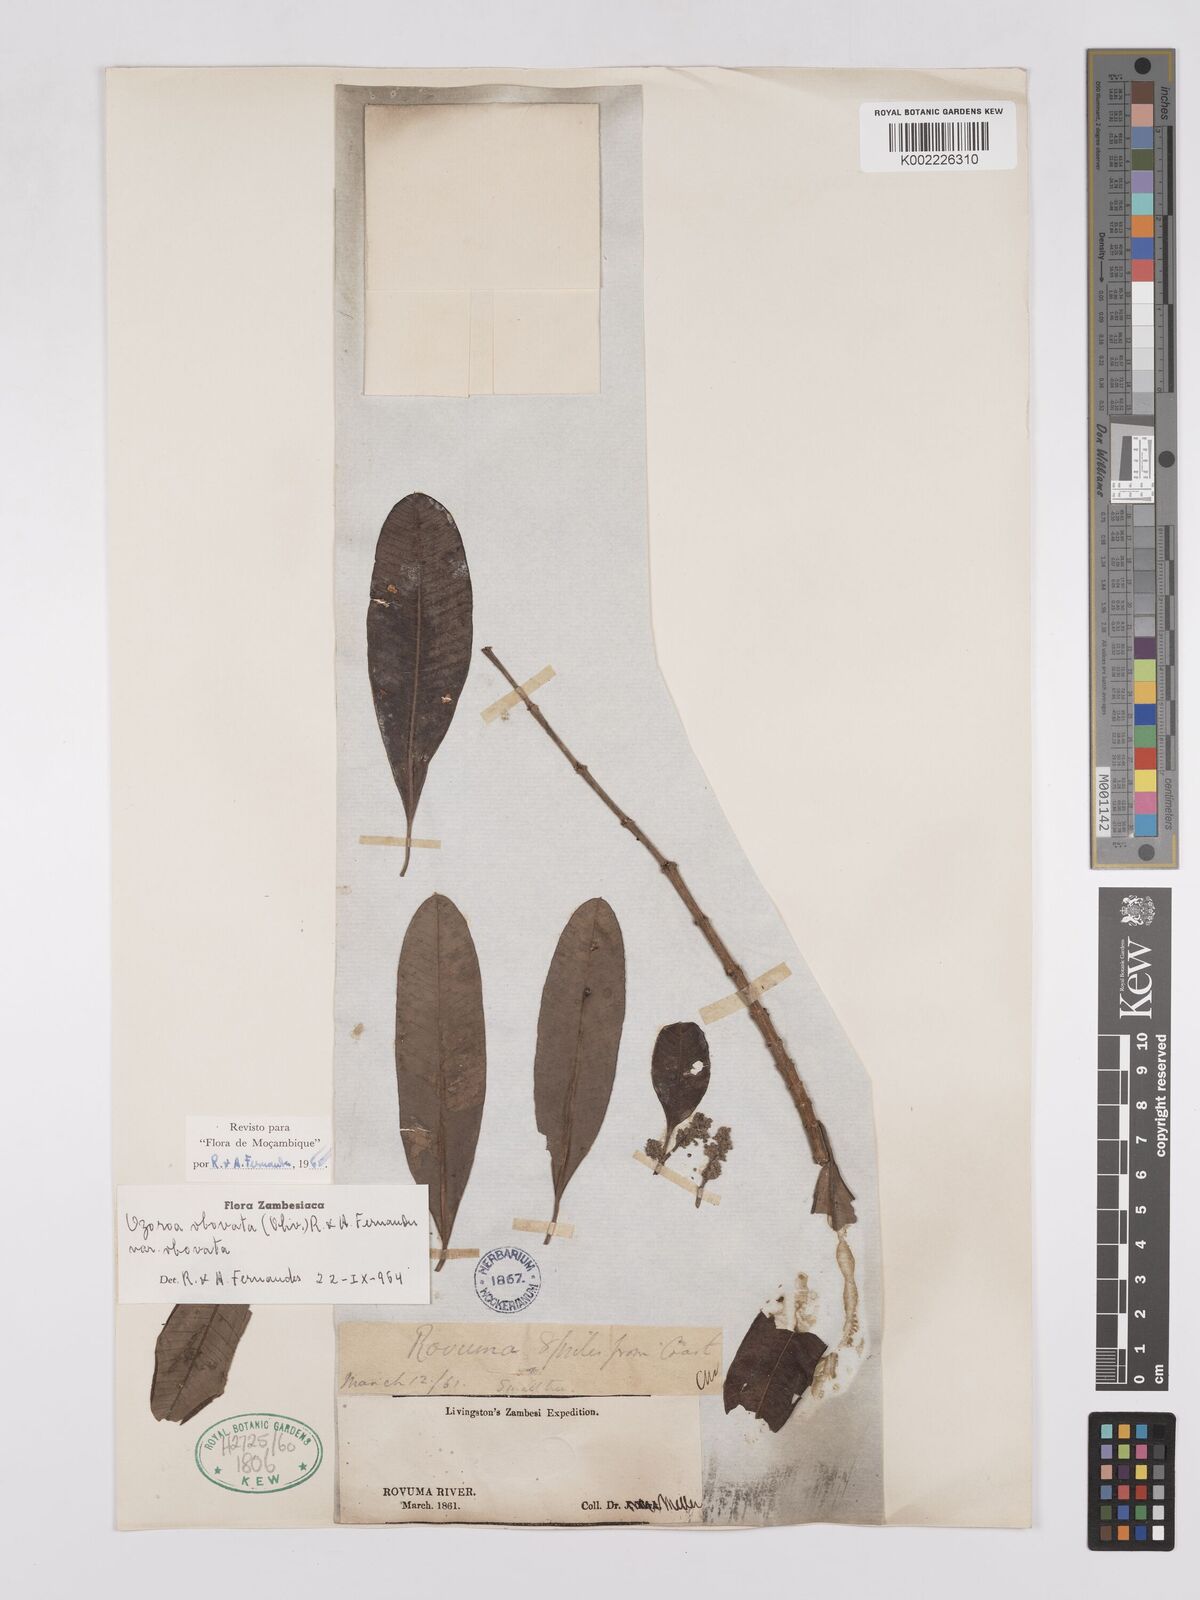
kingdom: Plantae
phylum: Tracheophyta
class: Magnoliopsida
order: Sapindales
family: Anacardiaceae
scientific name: Anacardiaceae
